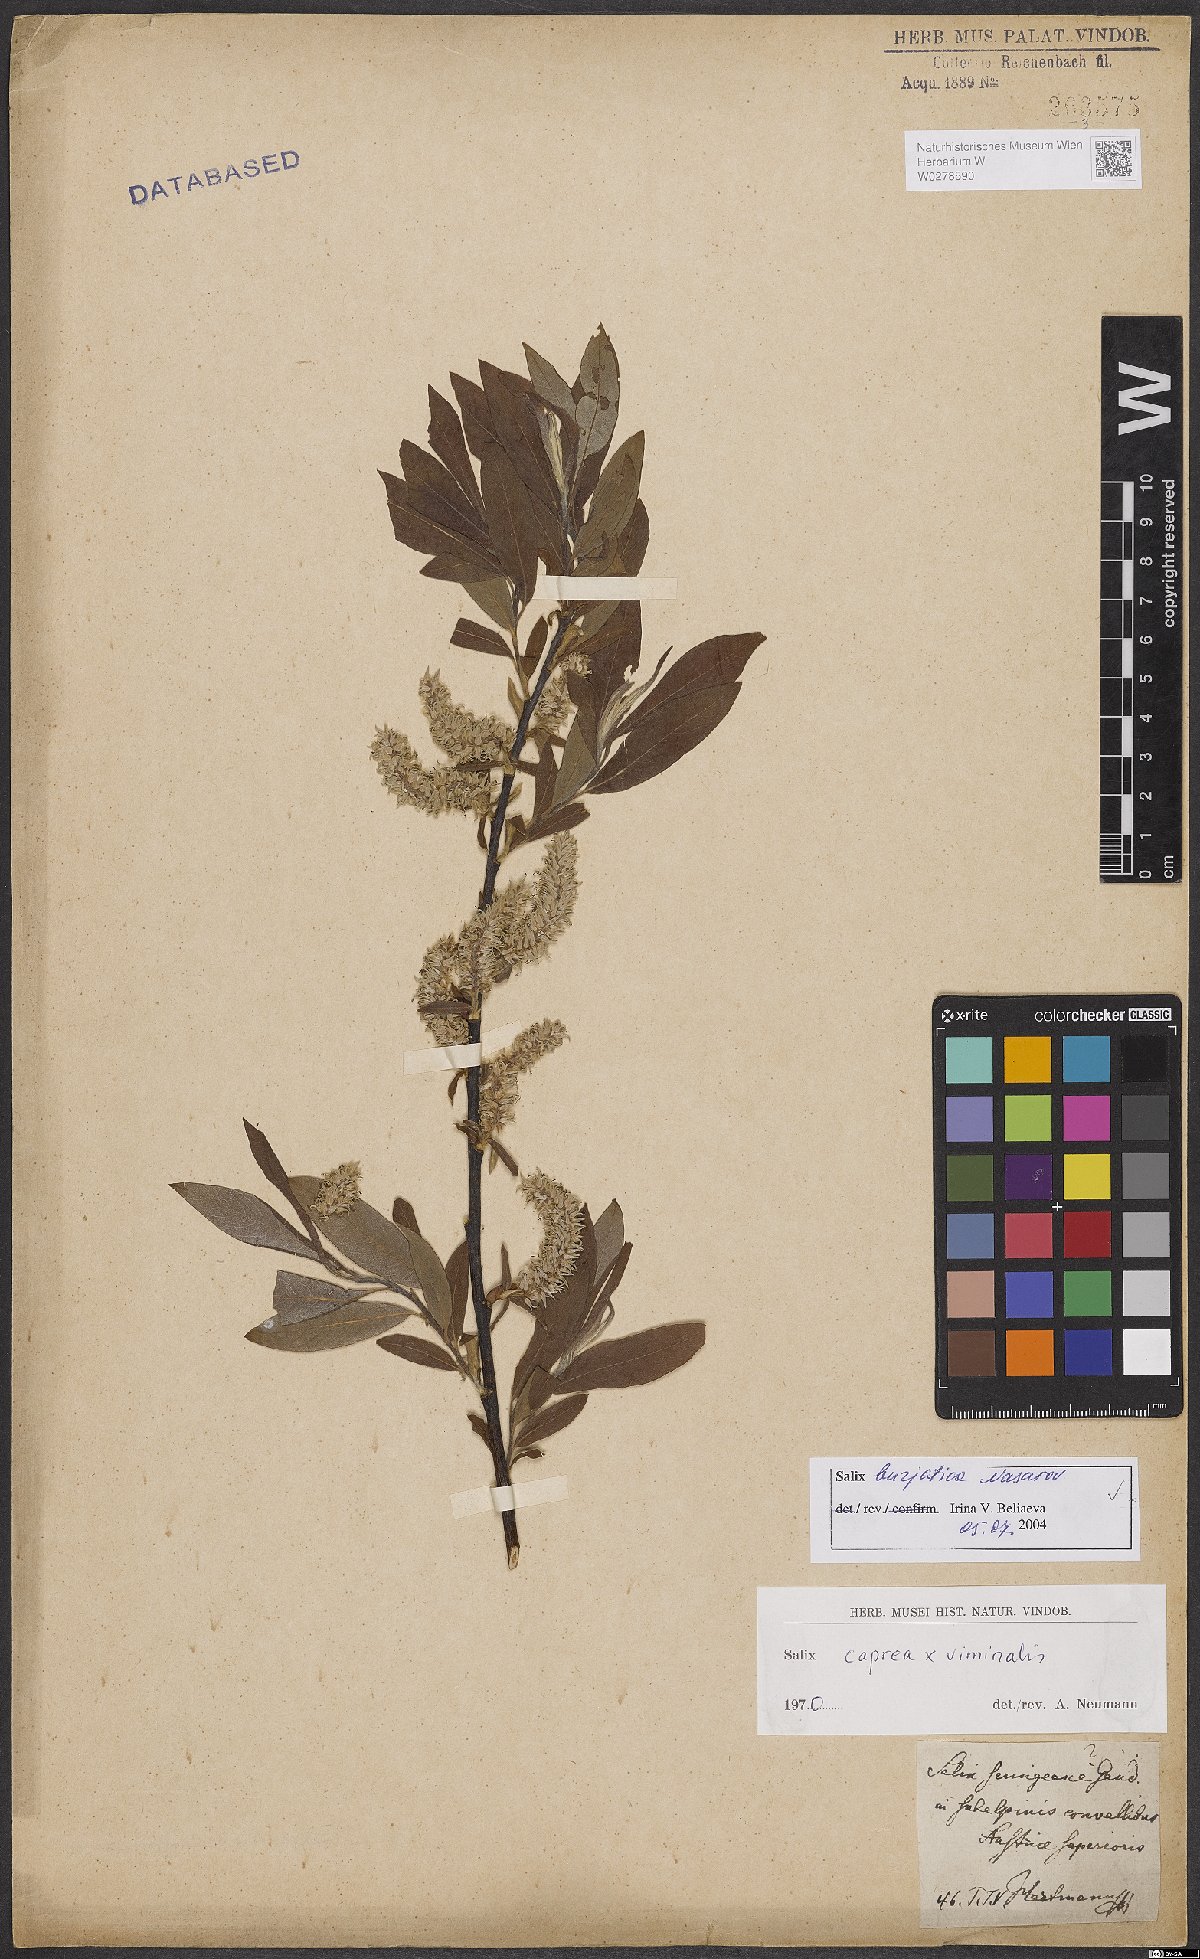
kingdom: Plantae
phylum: Tracheophyta
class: Magnoliopsida
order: Malpighiales
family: Salicaceae
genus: Salix
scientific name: Salix gmelinii
